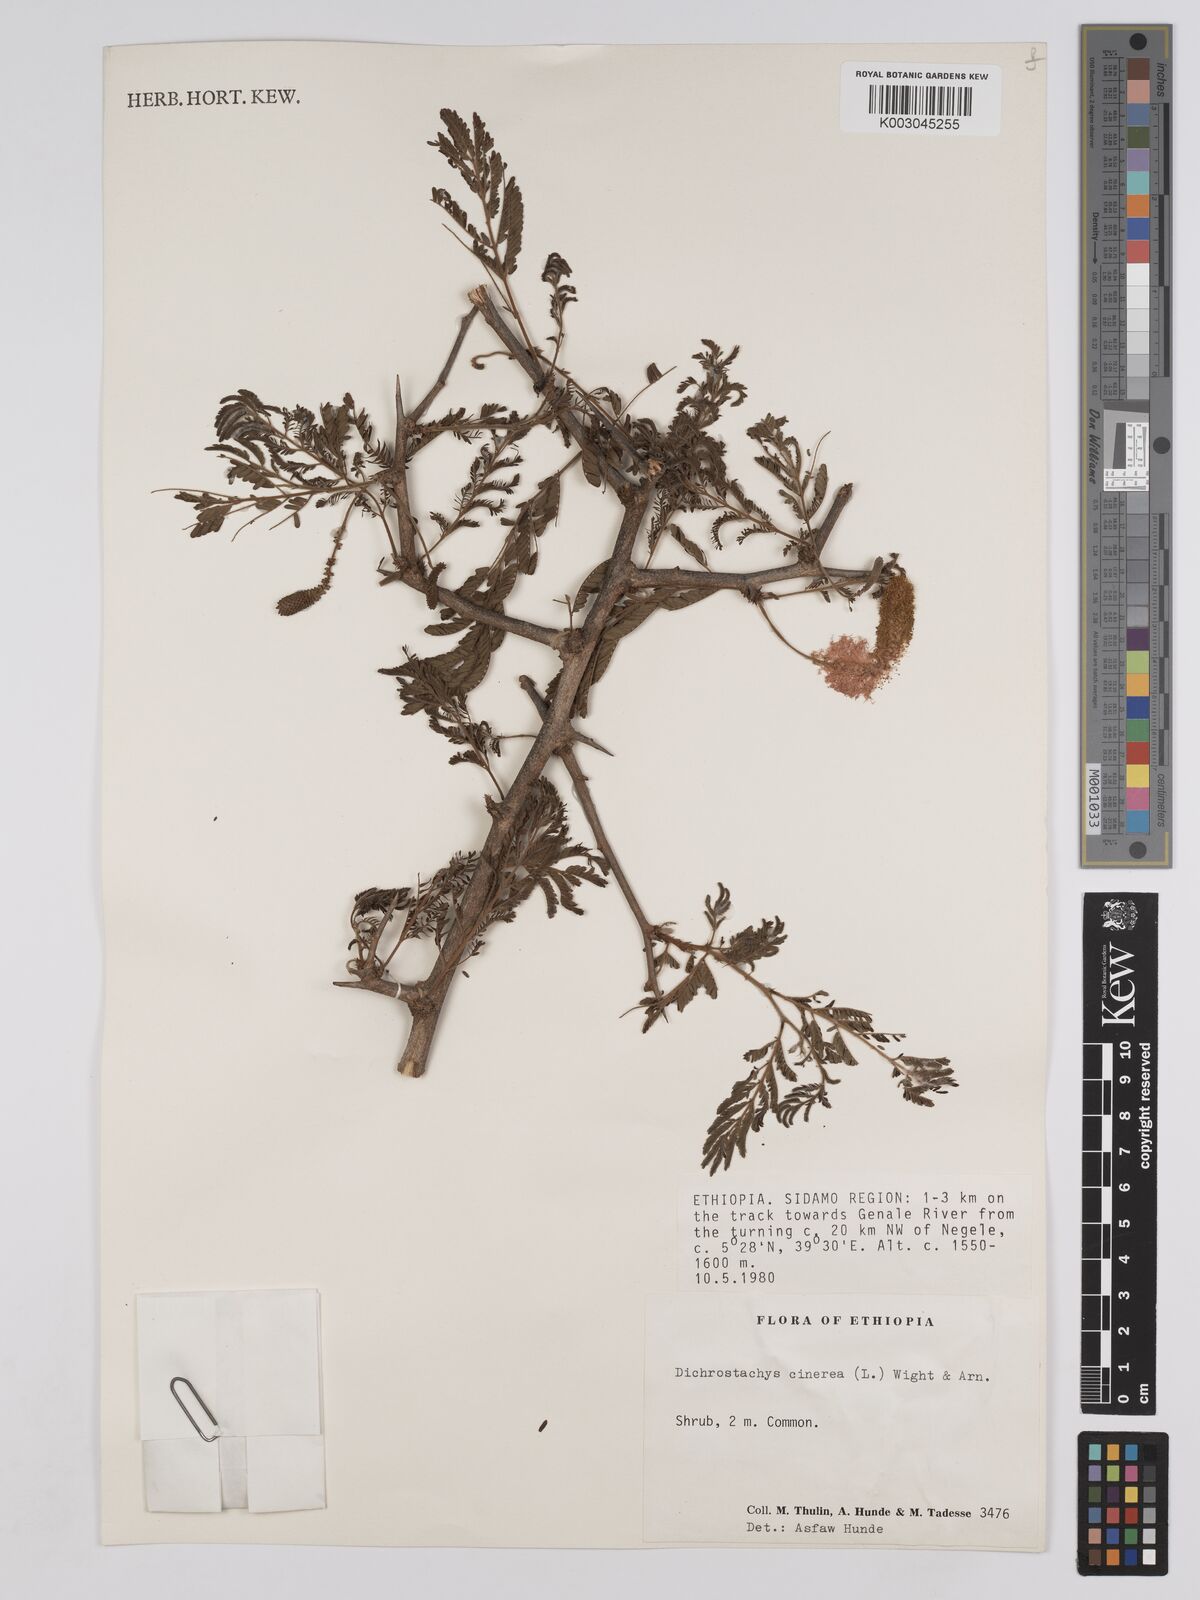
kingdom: Plantae
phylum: Tracheophyta
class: Magnoliopsida
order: Fabales
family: Fabaceae
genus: Dichrostachys
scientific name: Dichrostachys cinerea
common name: Sicklebush
